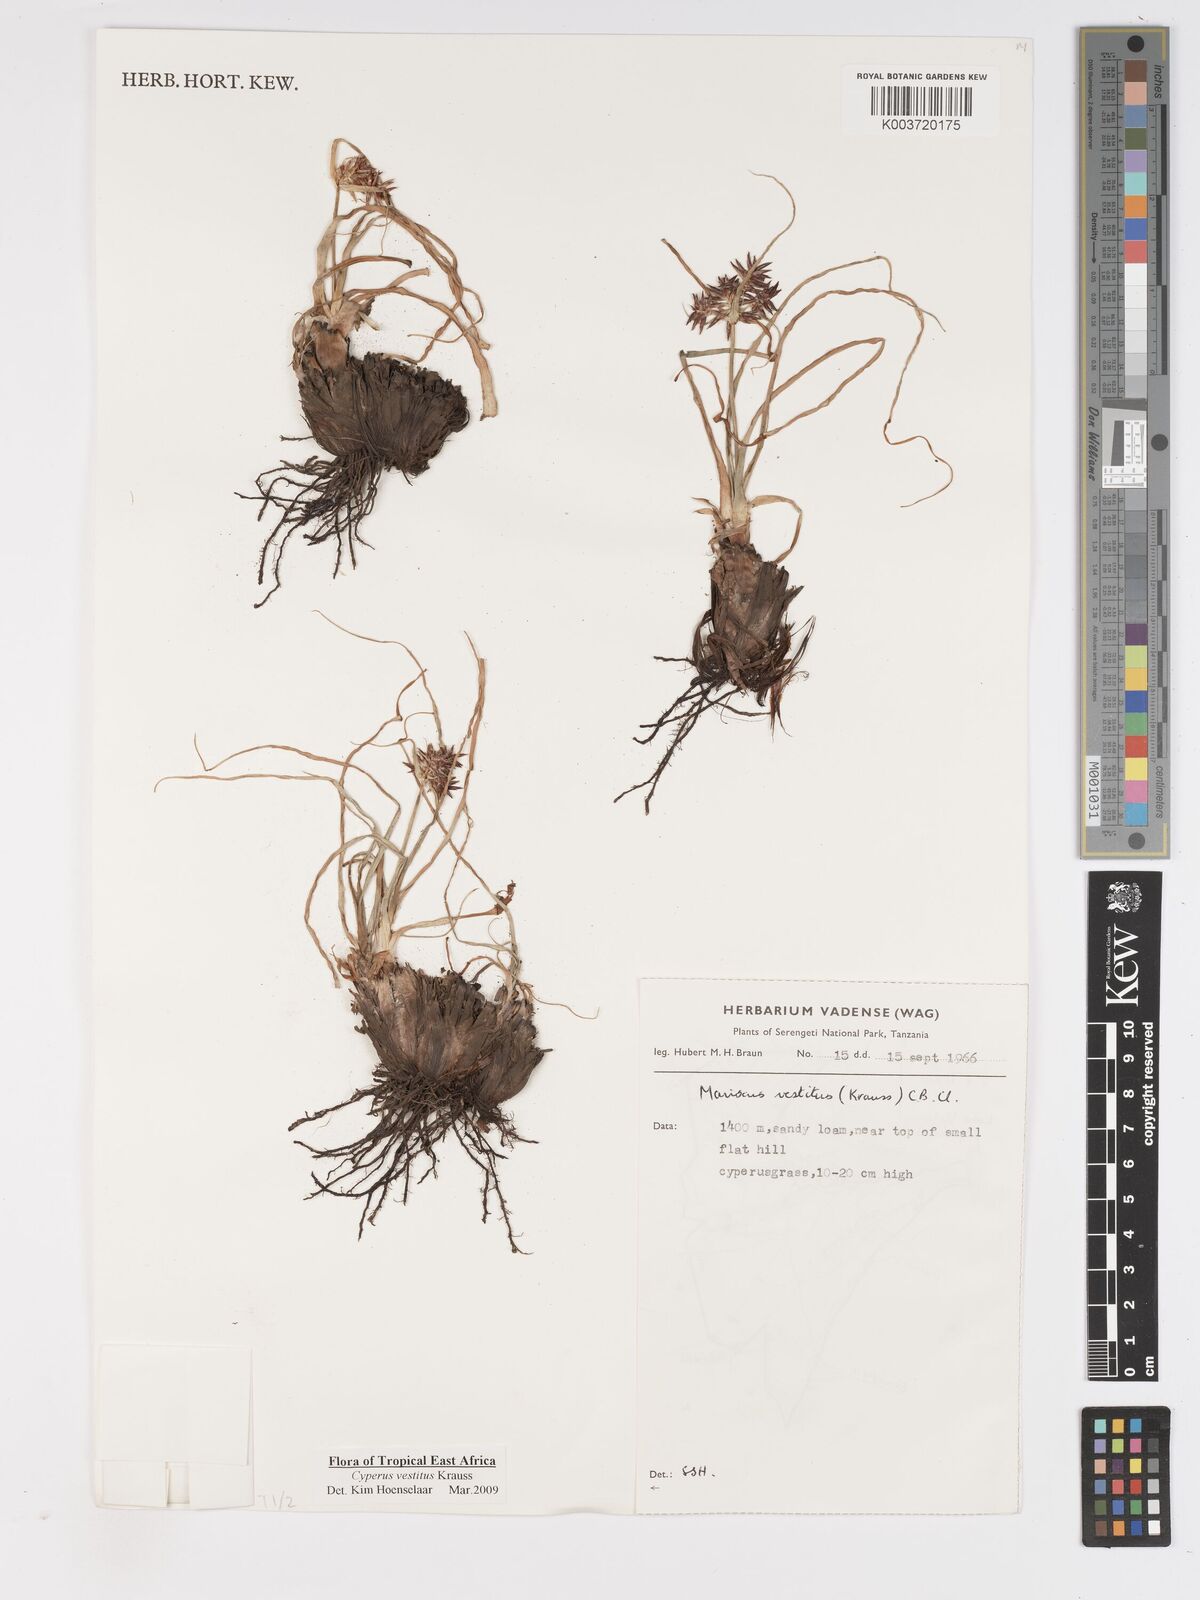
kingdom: Plantae
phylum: Tracheophyta
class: Liliopsida
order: Poales
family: Cyperaceae
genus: Cyperus
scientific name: Cyperus vestitus
